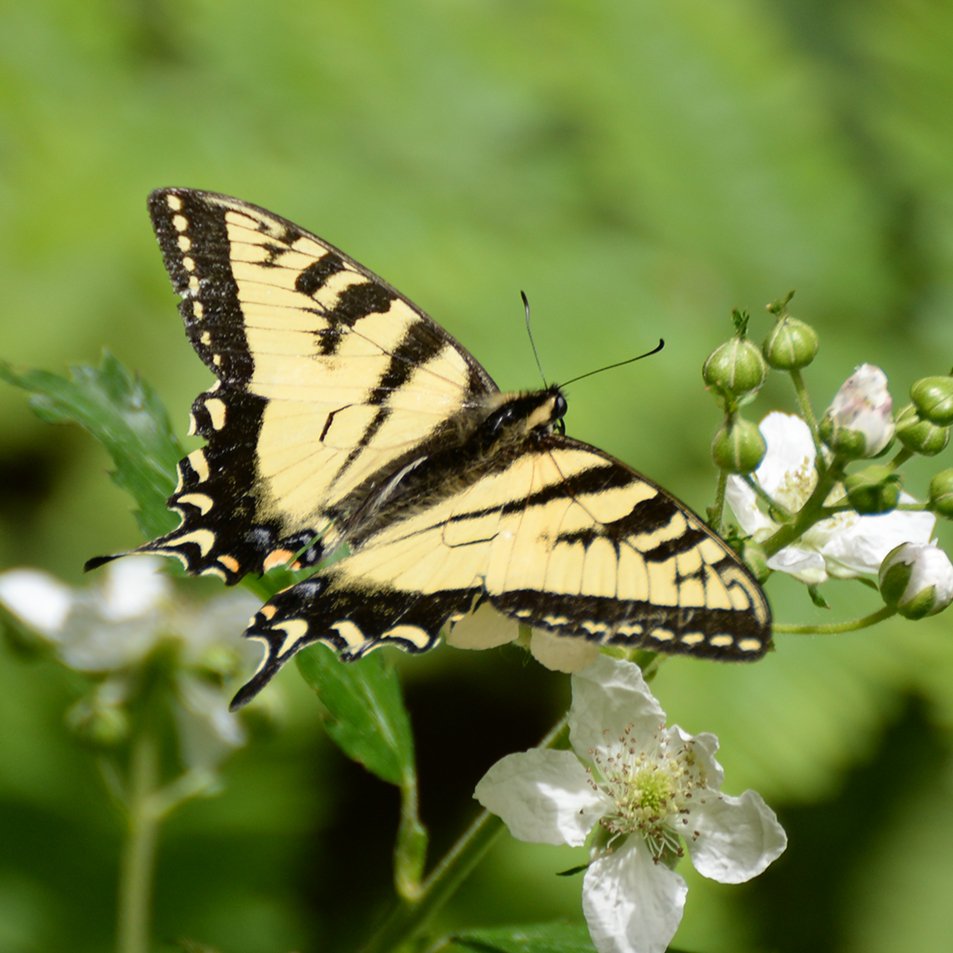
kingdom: Animalia
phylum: Arthropoda
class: Insecta
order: Lepidoptera
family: Papilionidae
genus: Pterourus
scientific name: Pterourus canadensis
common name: Canadian Tiger Swallowtail
